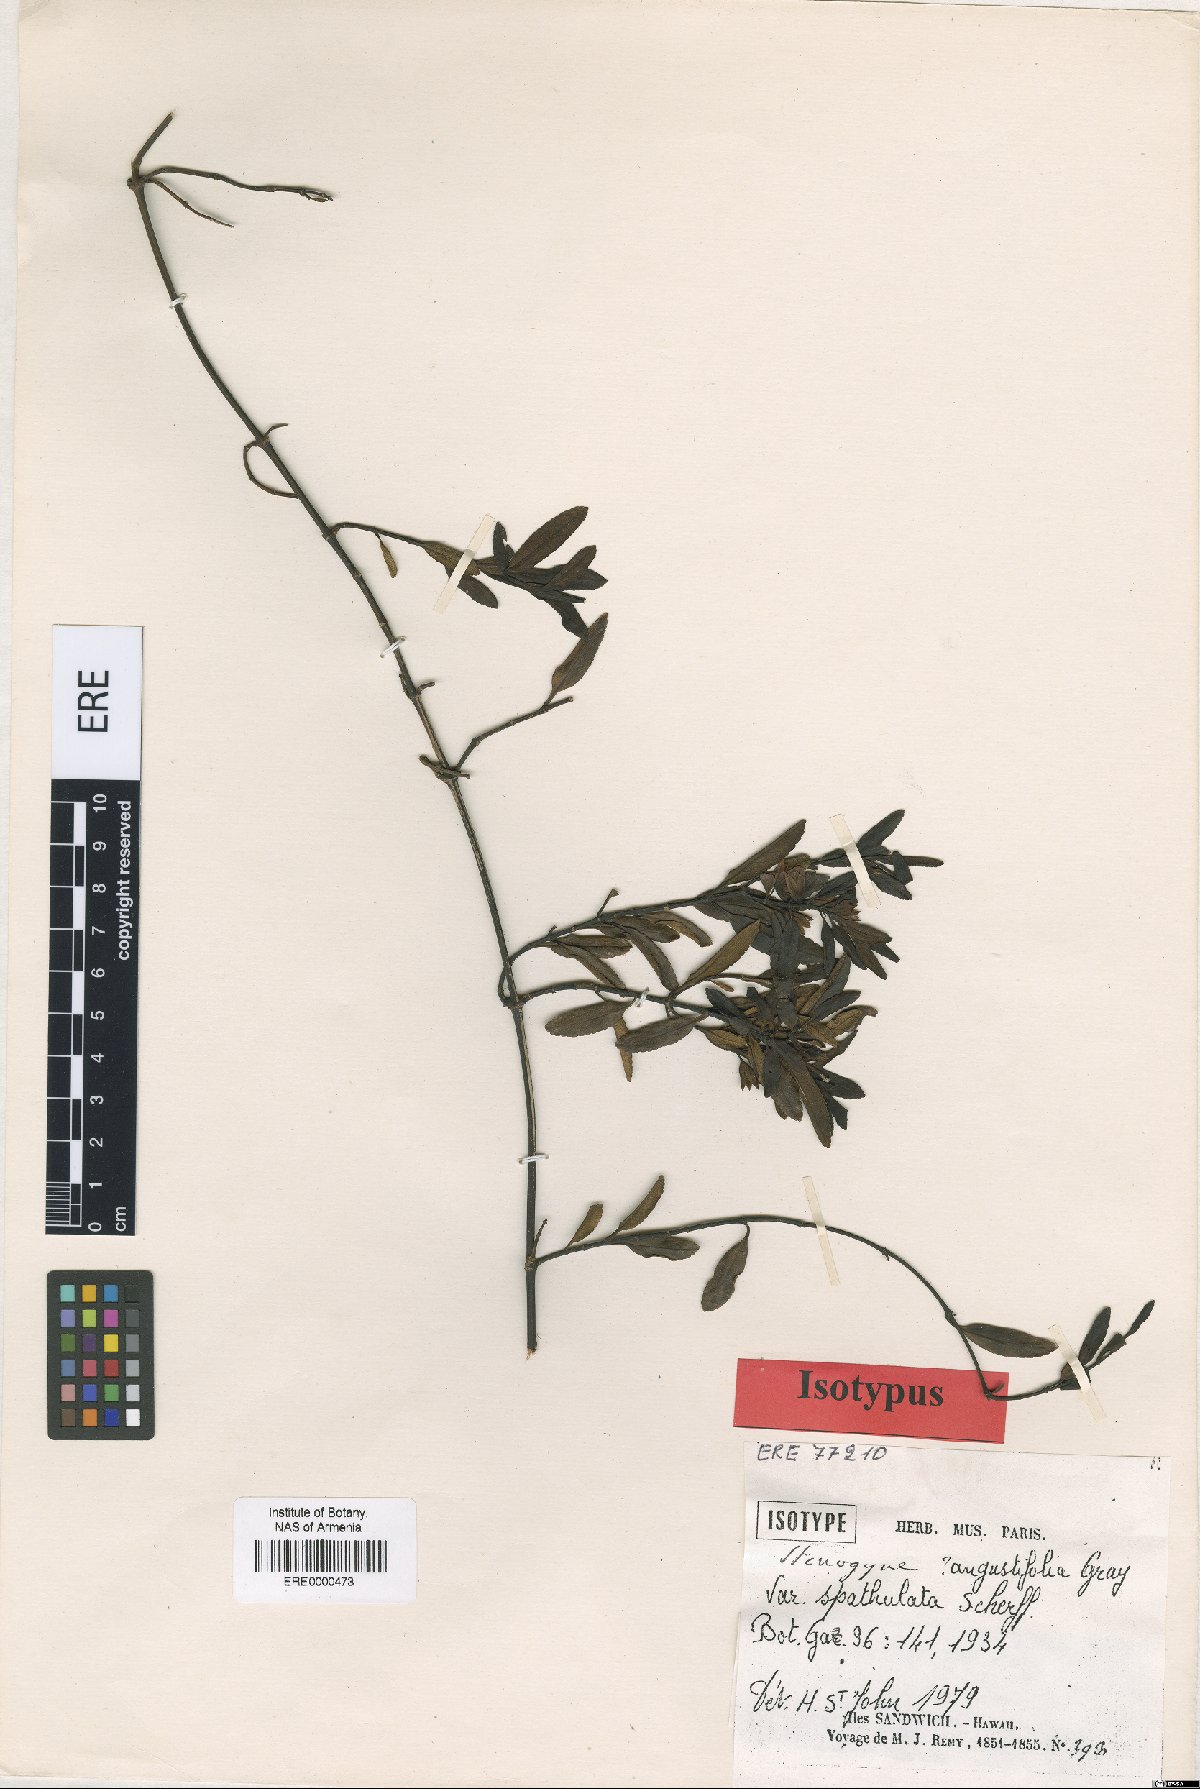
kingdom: Plantae
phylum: Tracheophyta
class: Magnoliopsida
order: Lamiales
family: Lamiaceae
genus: Stenogyne
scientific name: Stenogyne angustifolia
